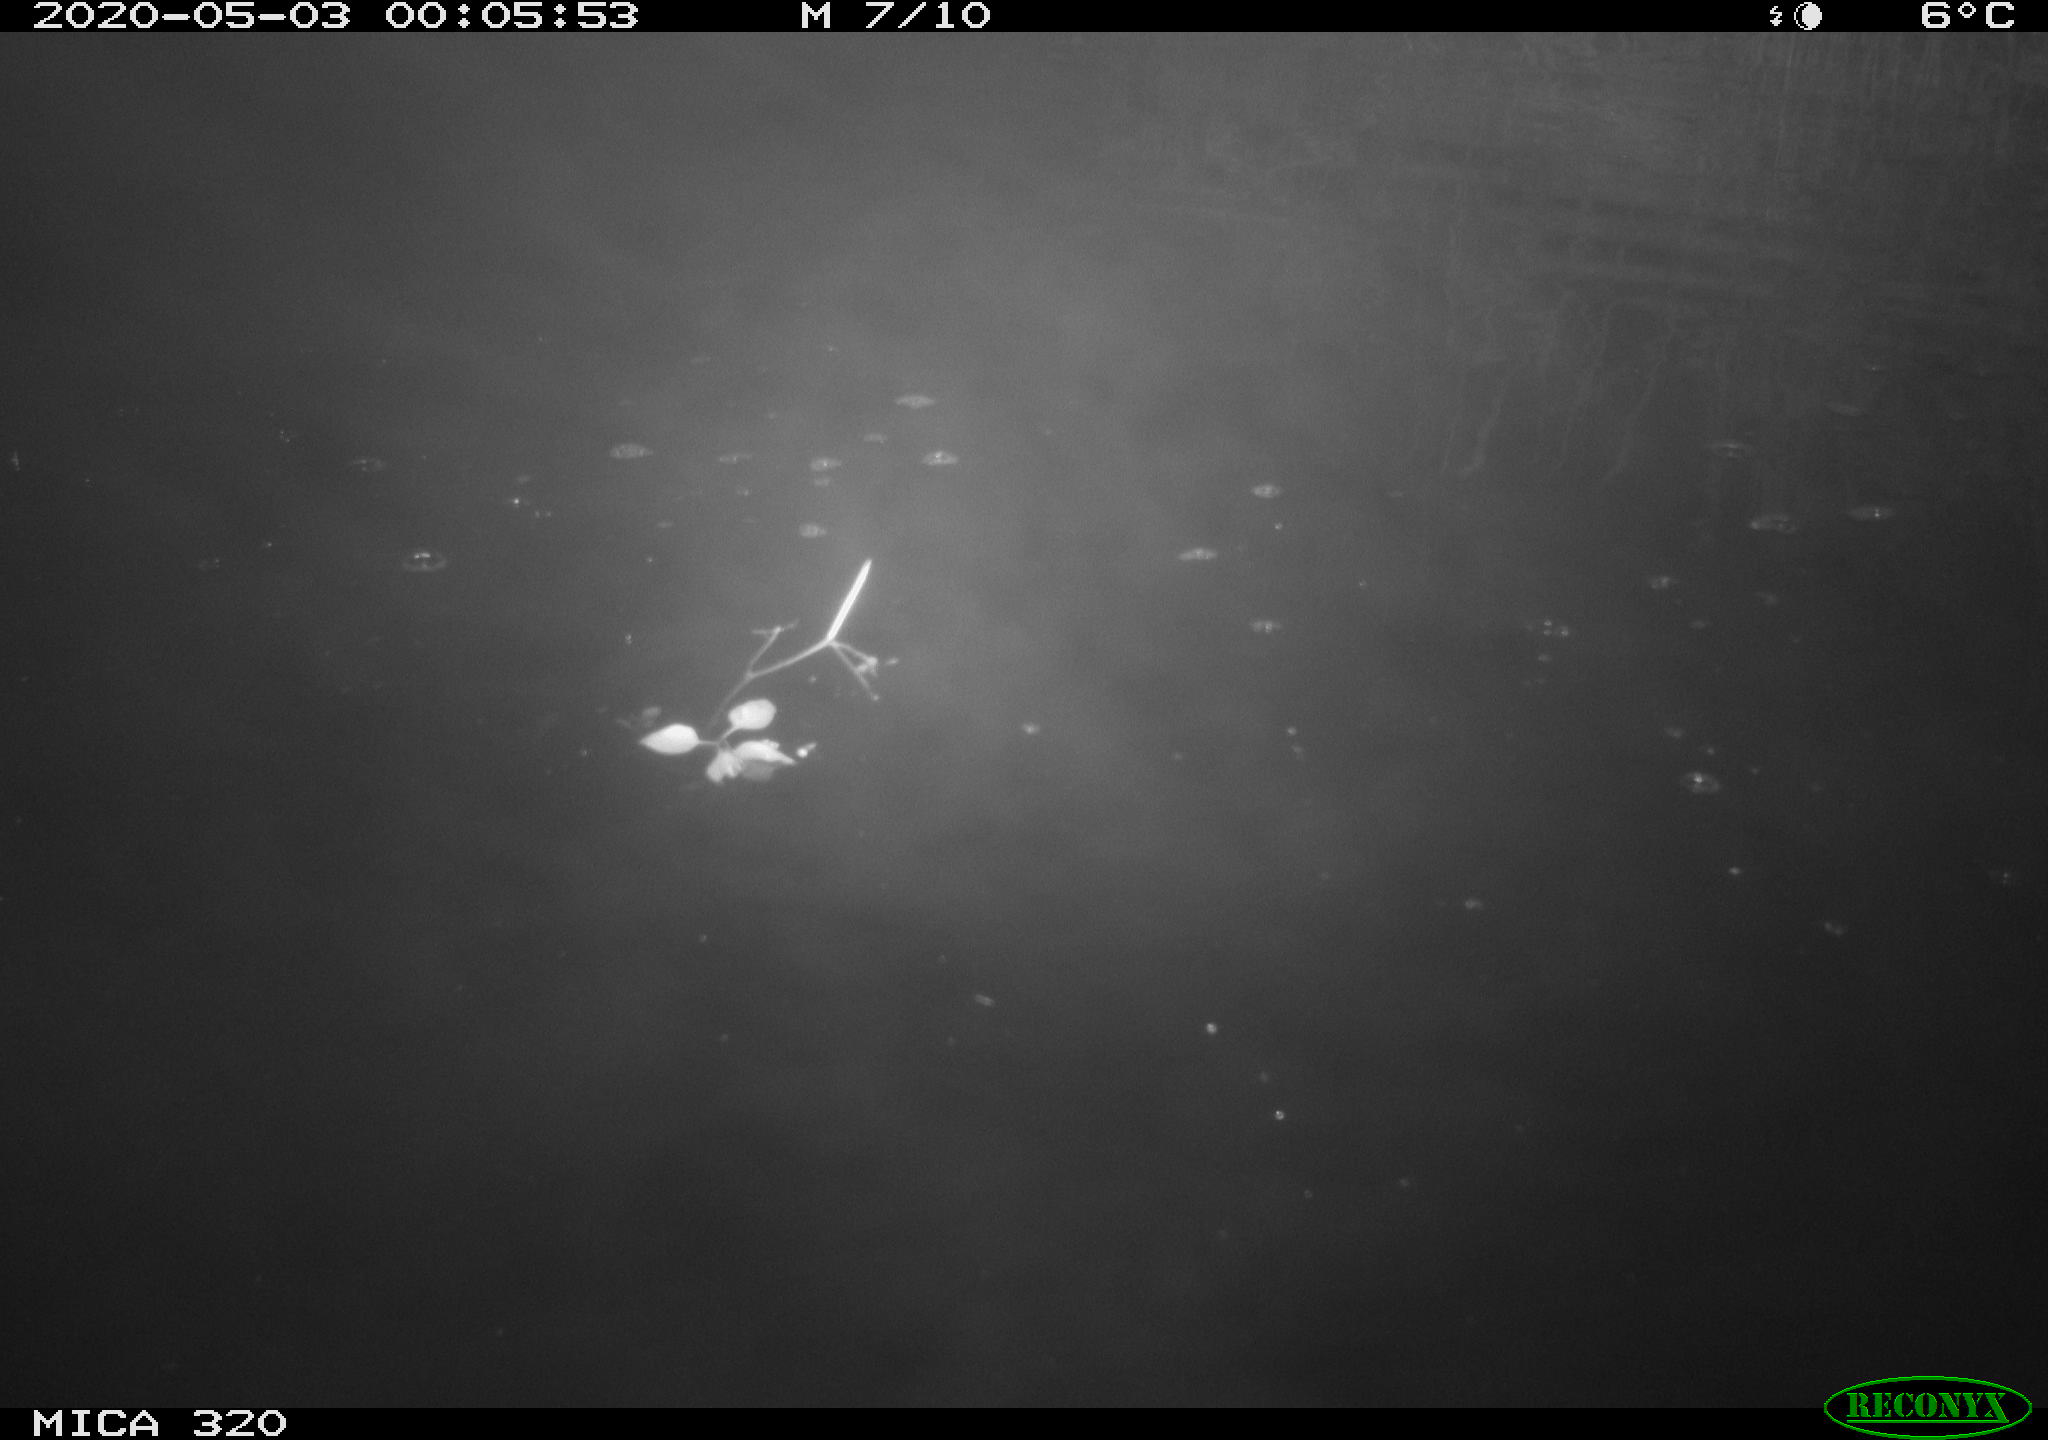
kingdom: Animalia
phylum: Chordata
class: Aves
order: Anseriformes
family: Anatidae
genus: Anas
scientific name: Anas platyrhynchos
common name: Mallard
